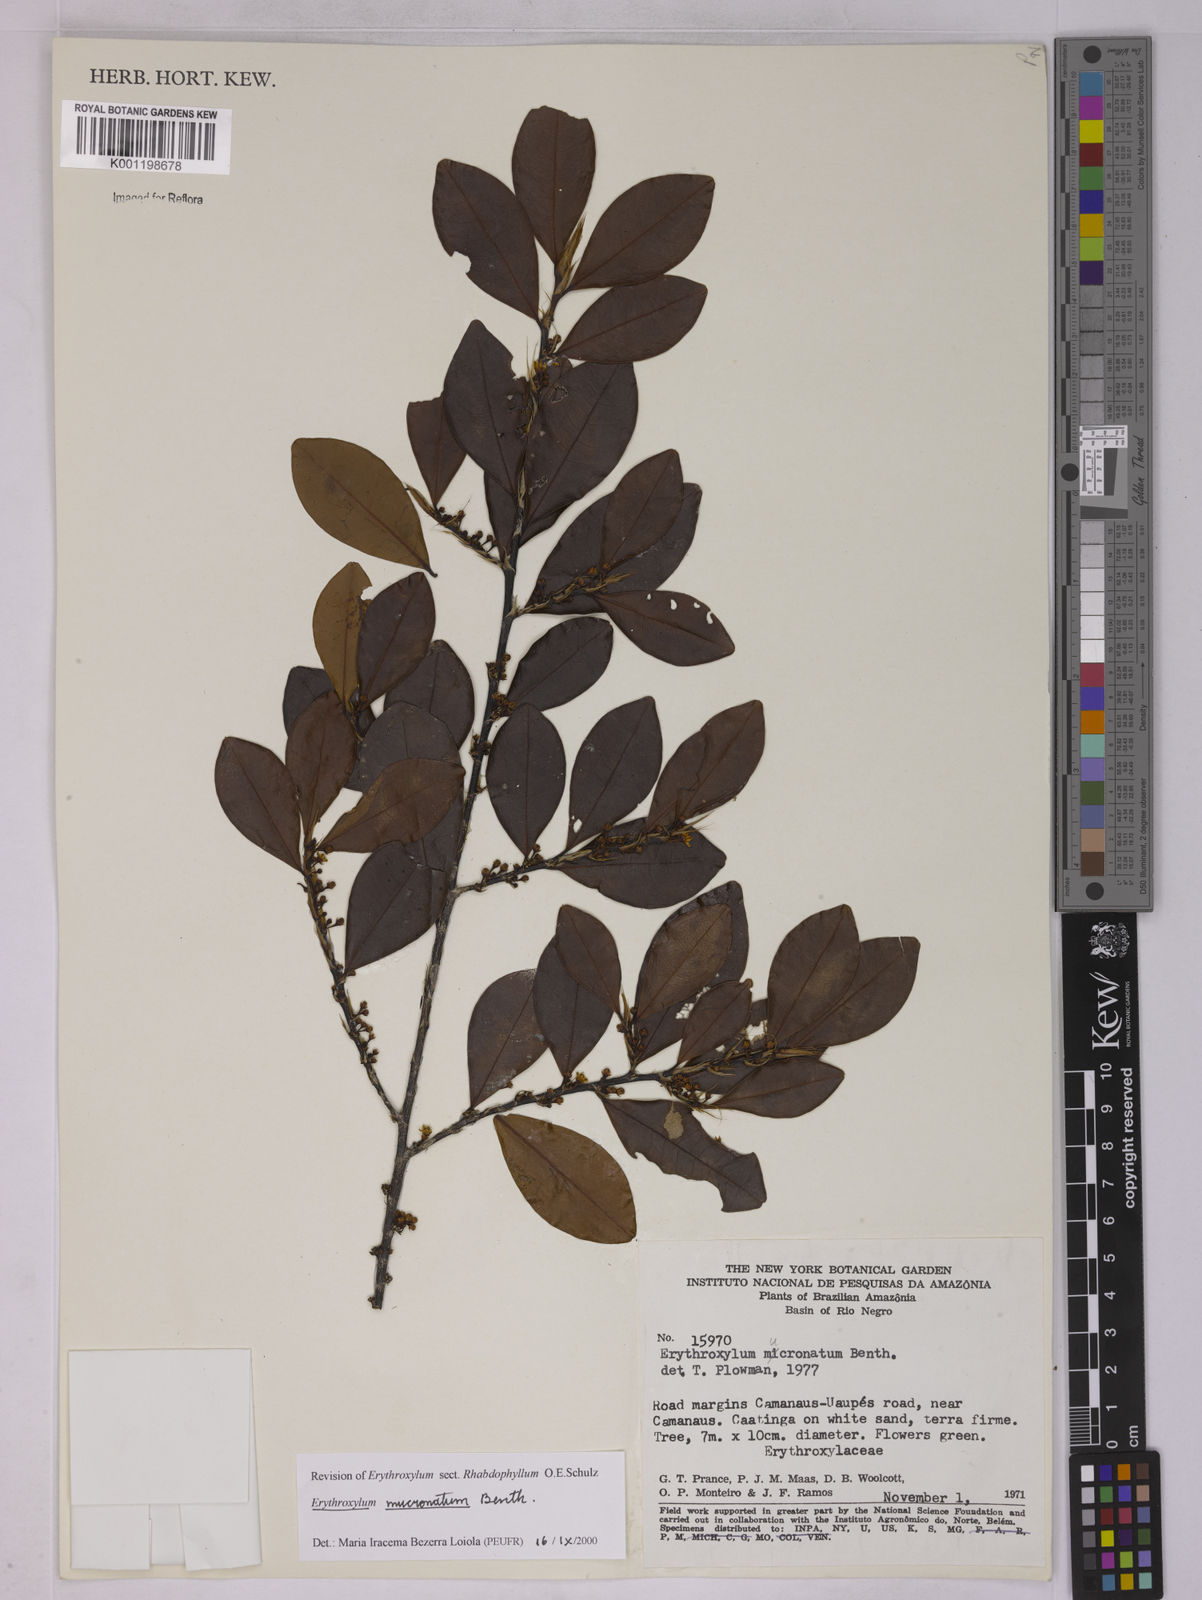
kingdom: Plantae
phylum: Tracheophyta
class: Magnoliopsida
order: Malpighiales
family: Erythroxylaceae
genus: Erythroxylum
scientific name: Erythroxylum mucronatum
